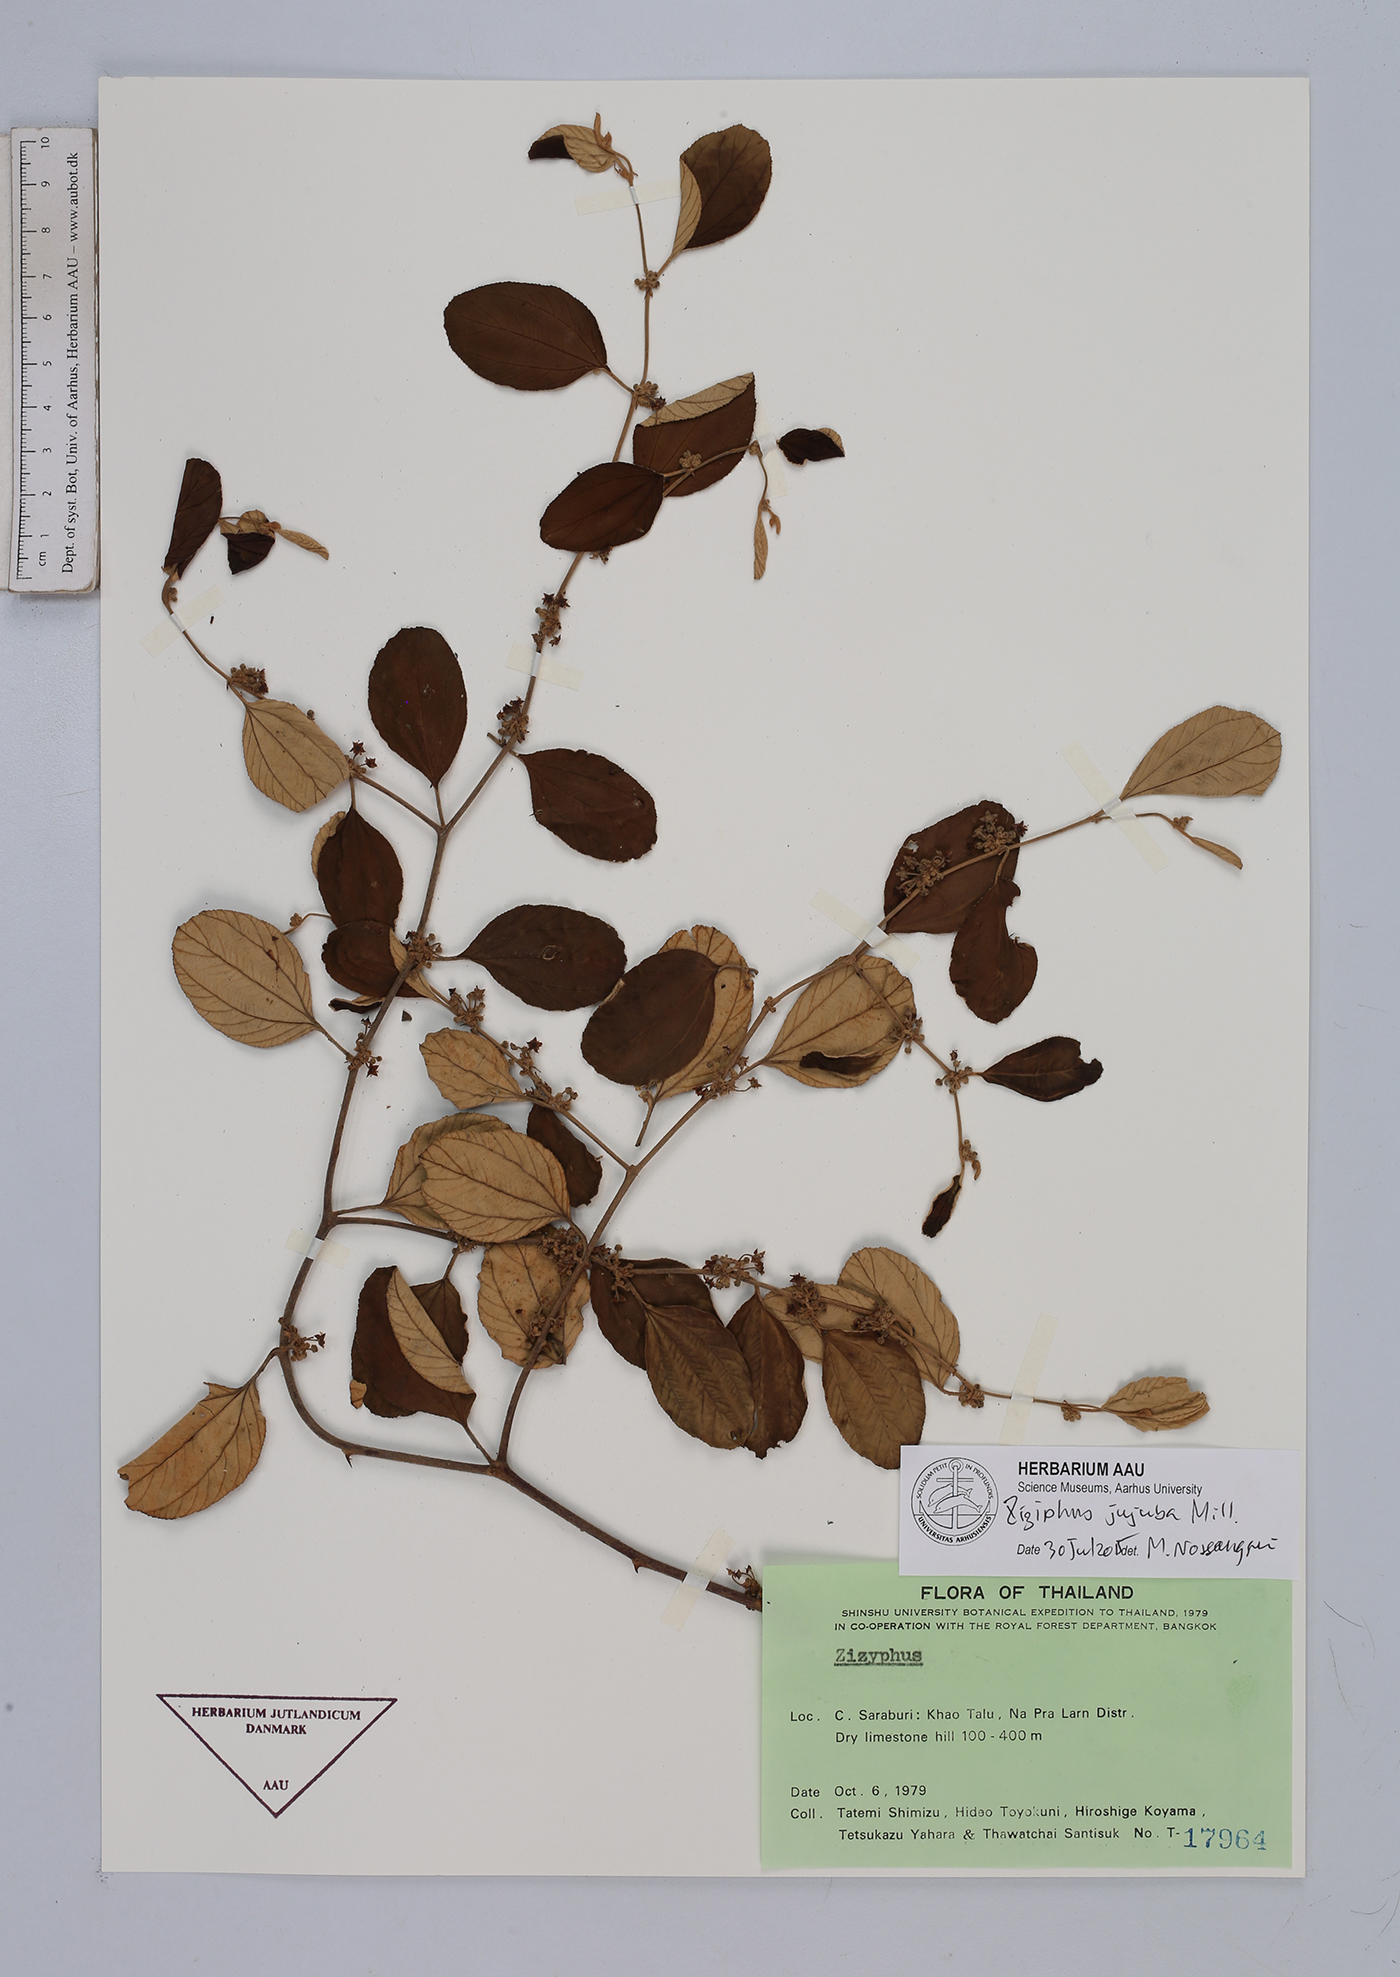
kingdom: Plantae
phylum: Tracheophyta
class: Magnoliopsida
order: Rosales
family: Rhamnaceae
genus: Ziziphus
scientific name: Ziziphus jujuba
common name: Jujube red date
